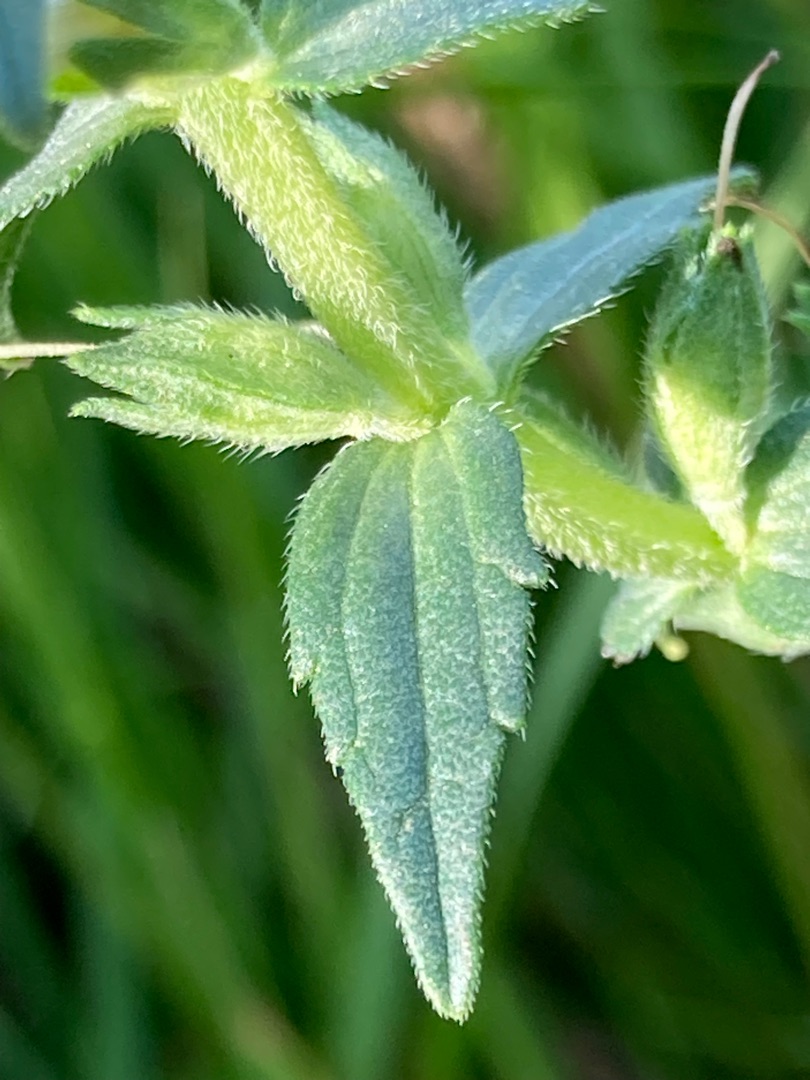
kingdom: Plantae
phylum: Tracheophyta
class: Magnoliopsida
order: Lamiales
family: Orobanchaceae
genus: Odontites
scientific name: Odontites
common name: Rødtopslægten
